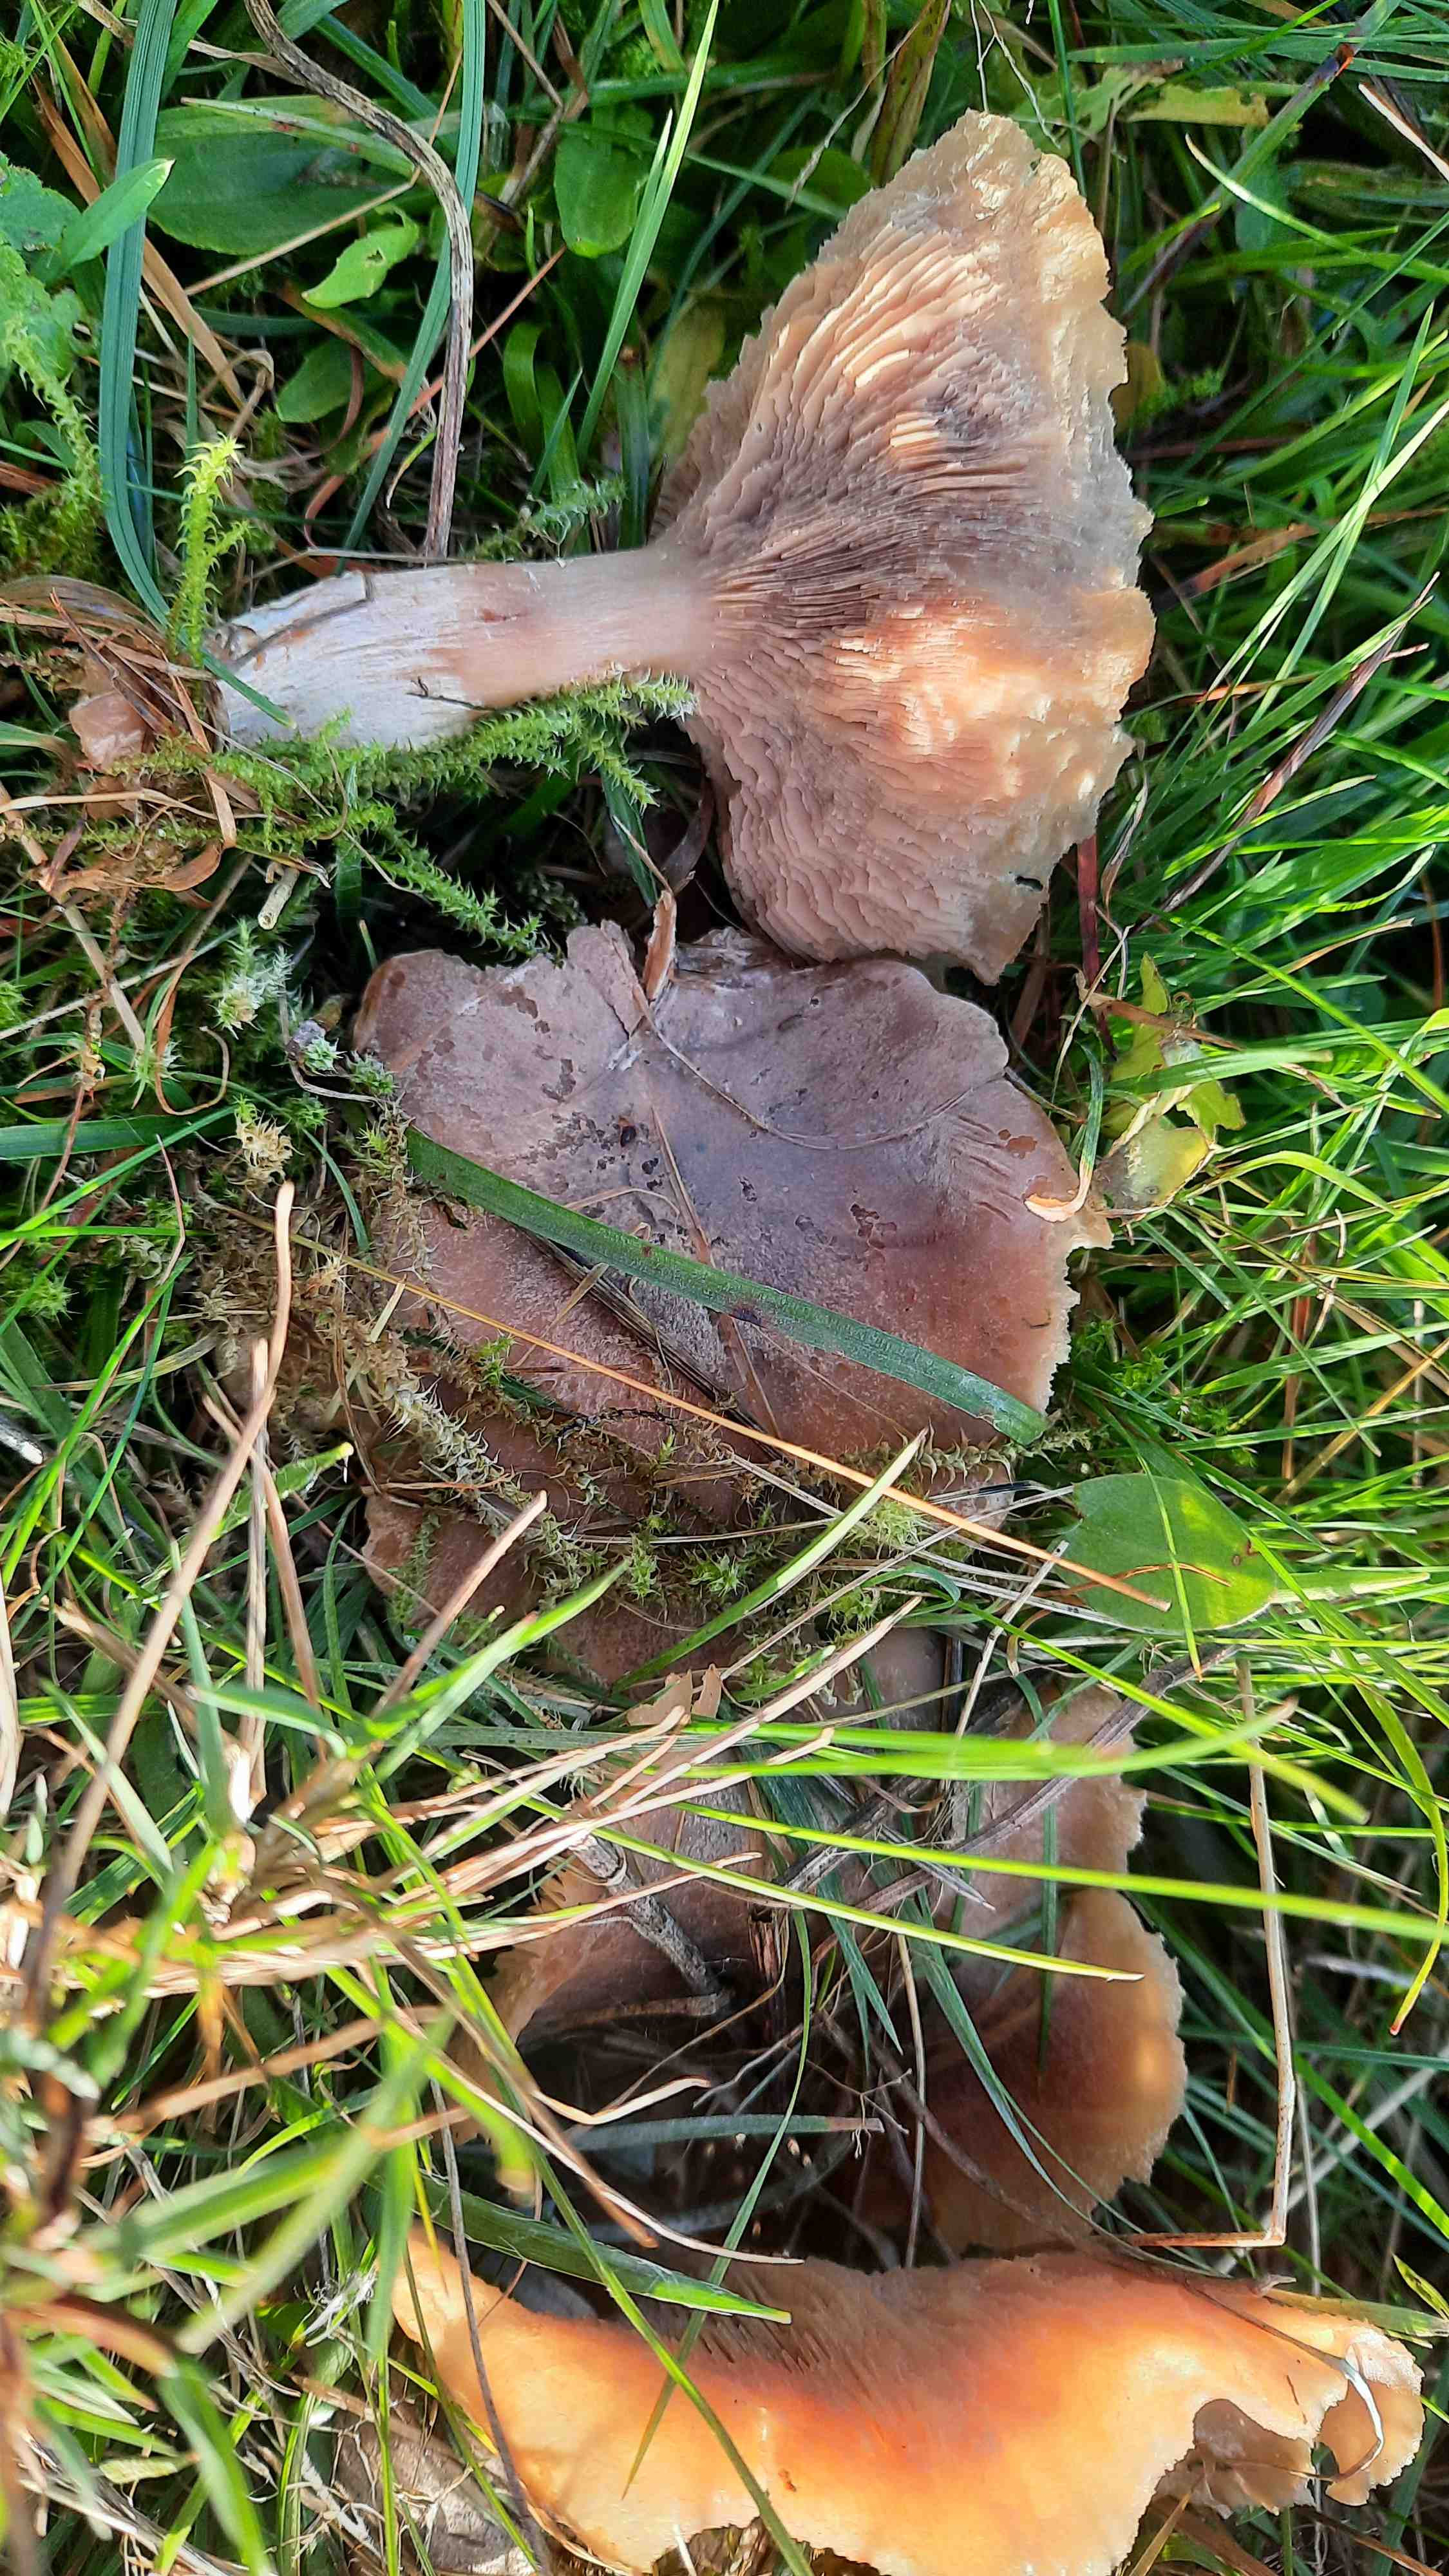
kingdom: Fungi
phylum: Basidiomycota
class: Agaricomycetes
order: Agaricales
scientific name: Agaricales
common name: champignonordenen
